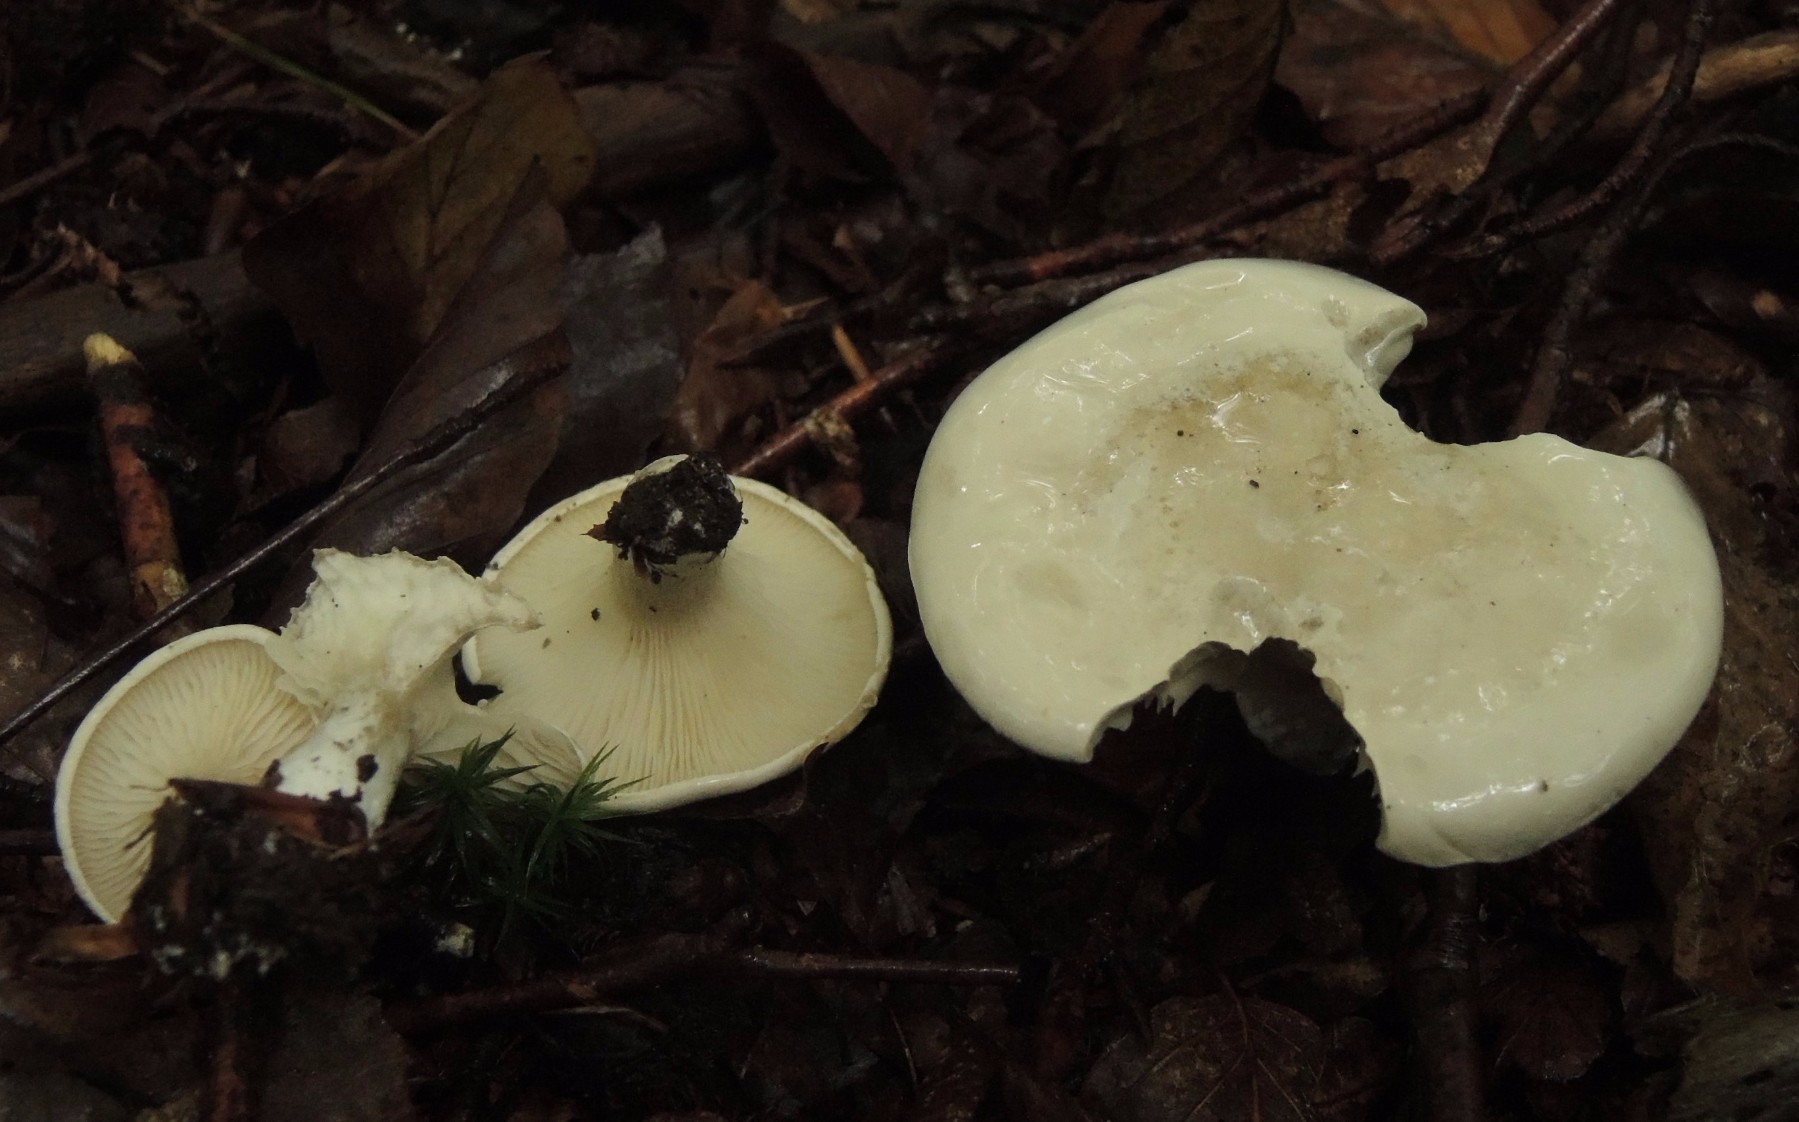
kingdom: Fungi
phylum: Basidiomycota
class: Agaricomycetes
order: Agaricales
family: Entolomataceae
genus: Clitopilus
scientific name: Clitopilus
